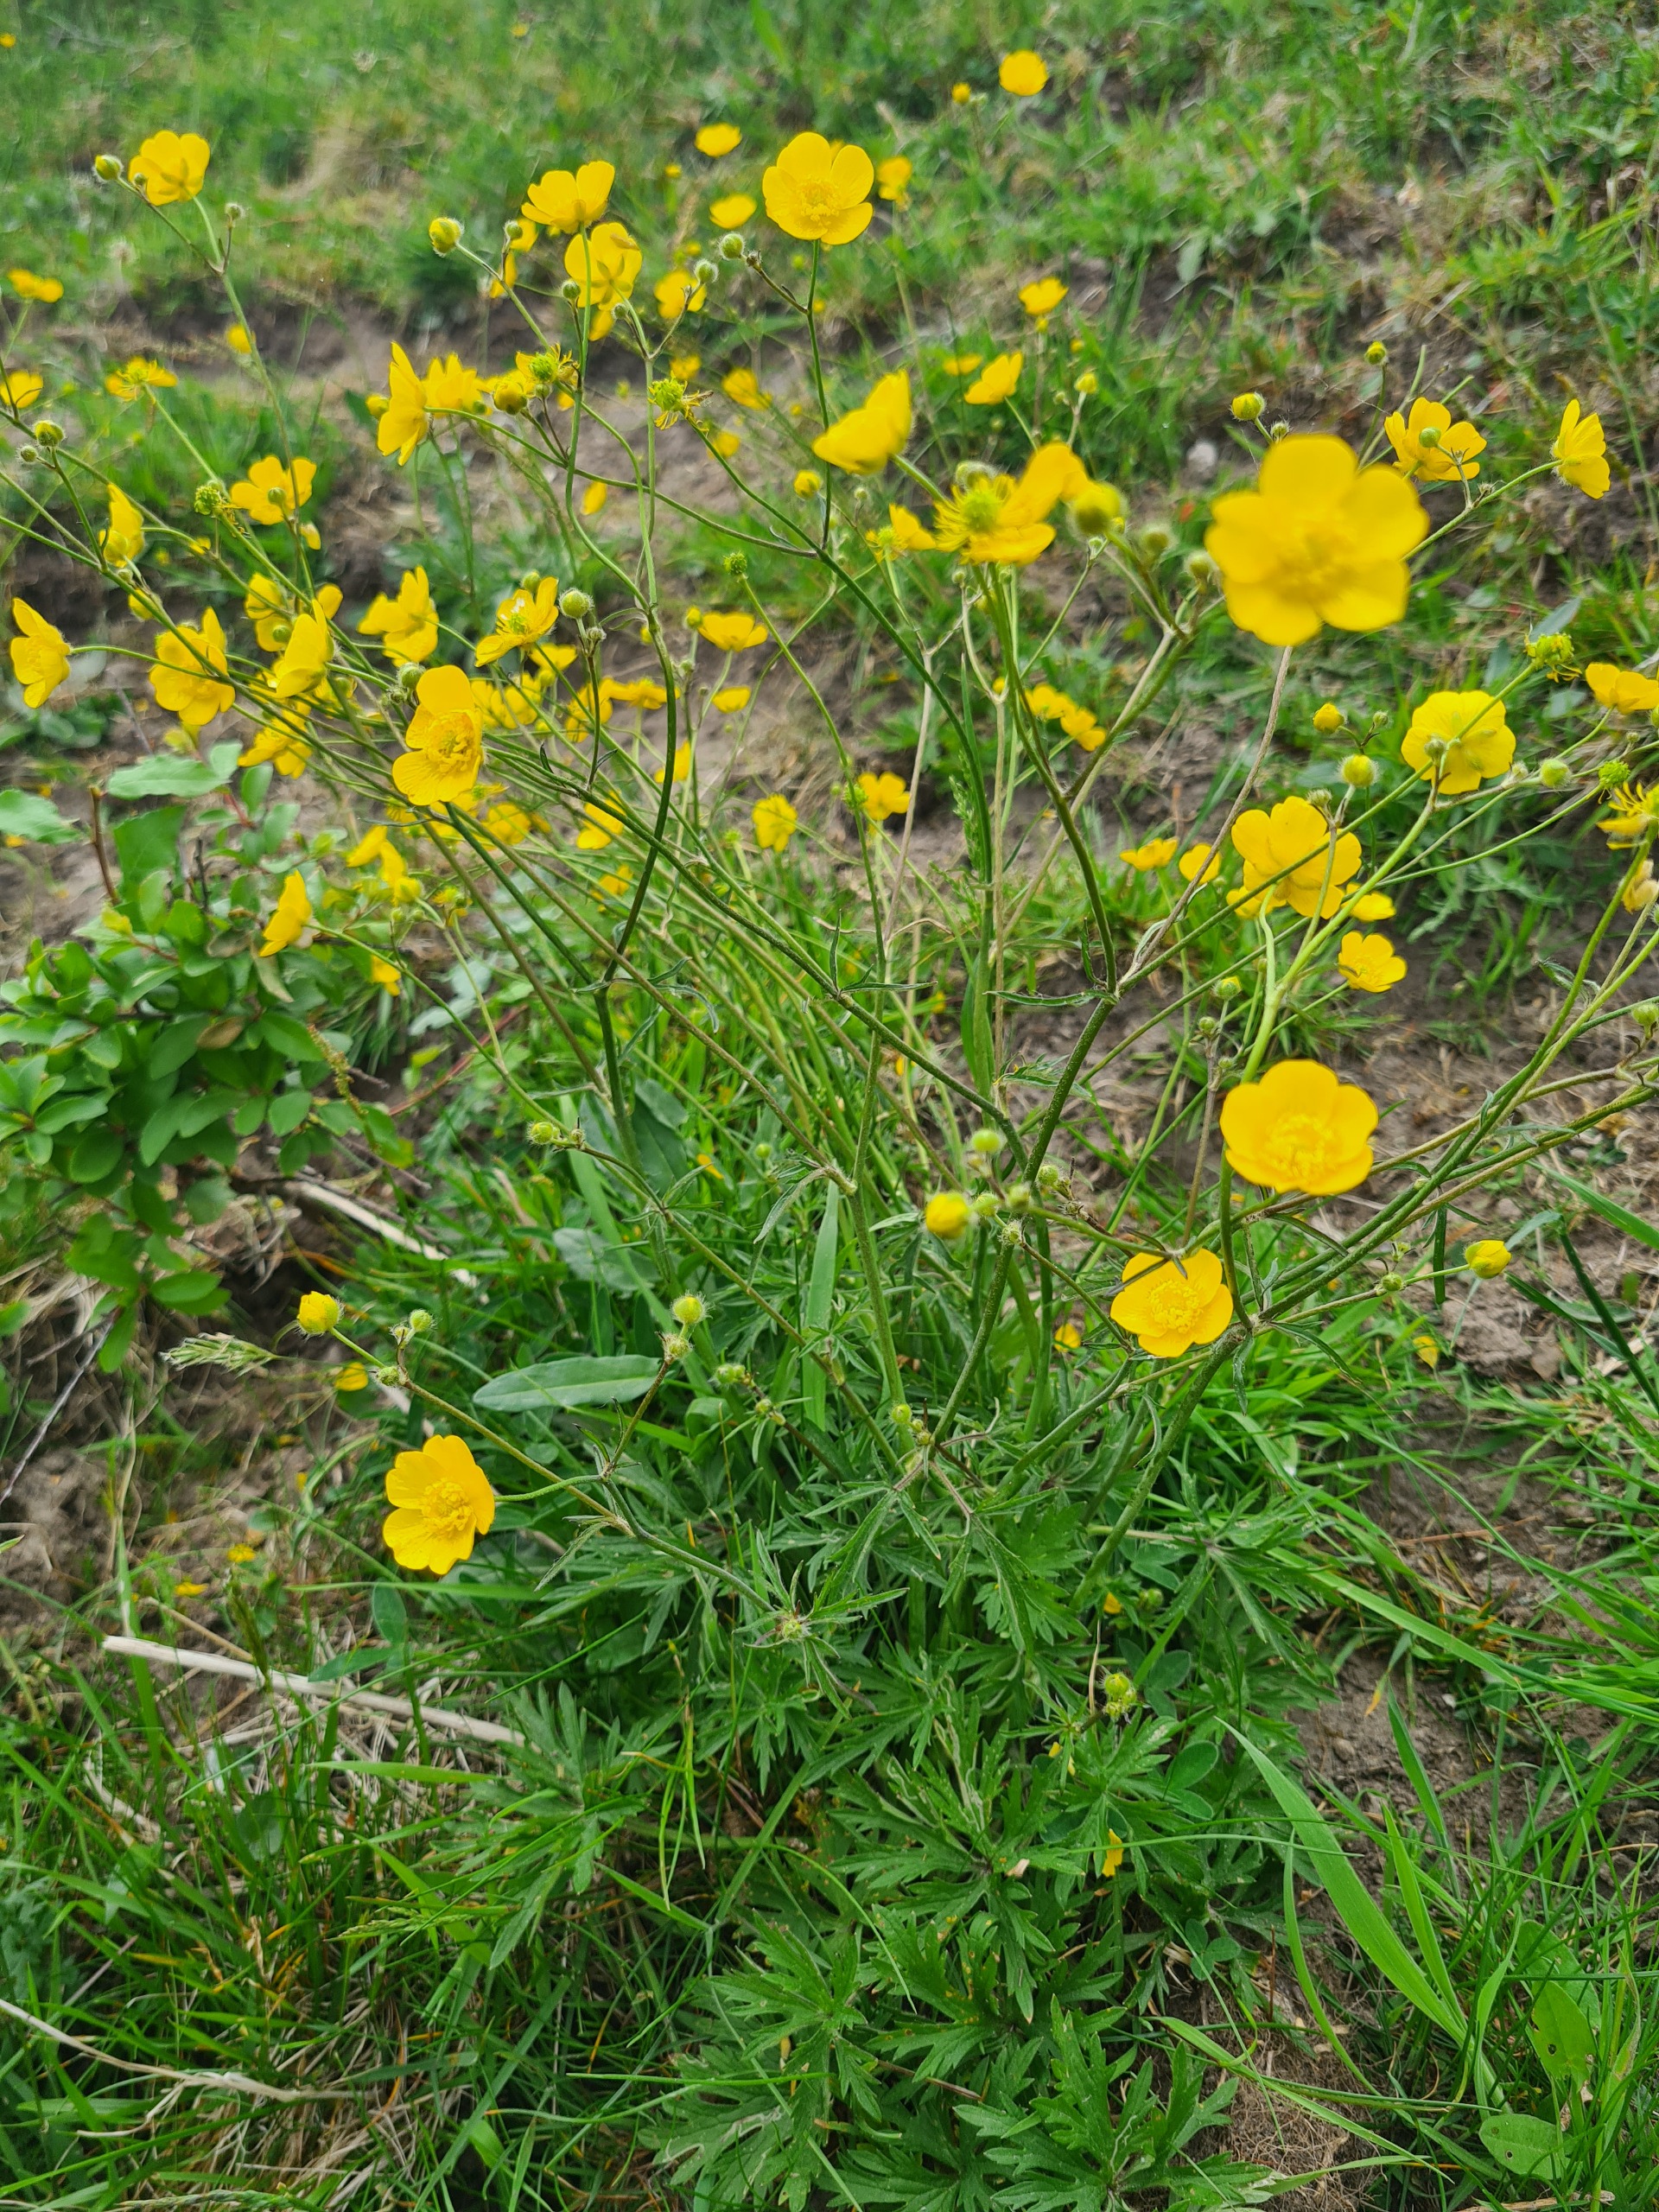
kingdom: Plantae
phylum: Tracheophyta
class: Magnoliopsida
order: Ranunculales
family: Ranunculaceae
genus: Ranunculus
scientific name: Ranunculus acris
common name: Bidende ranunkel
